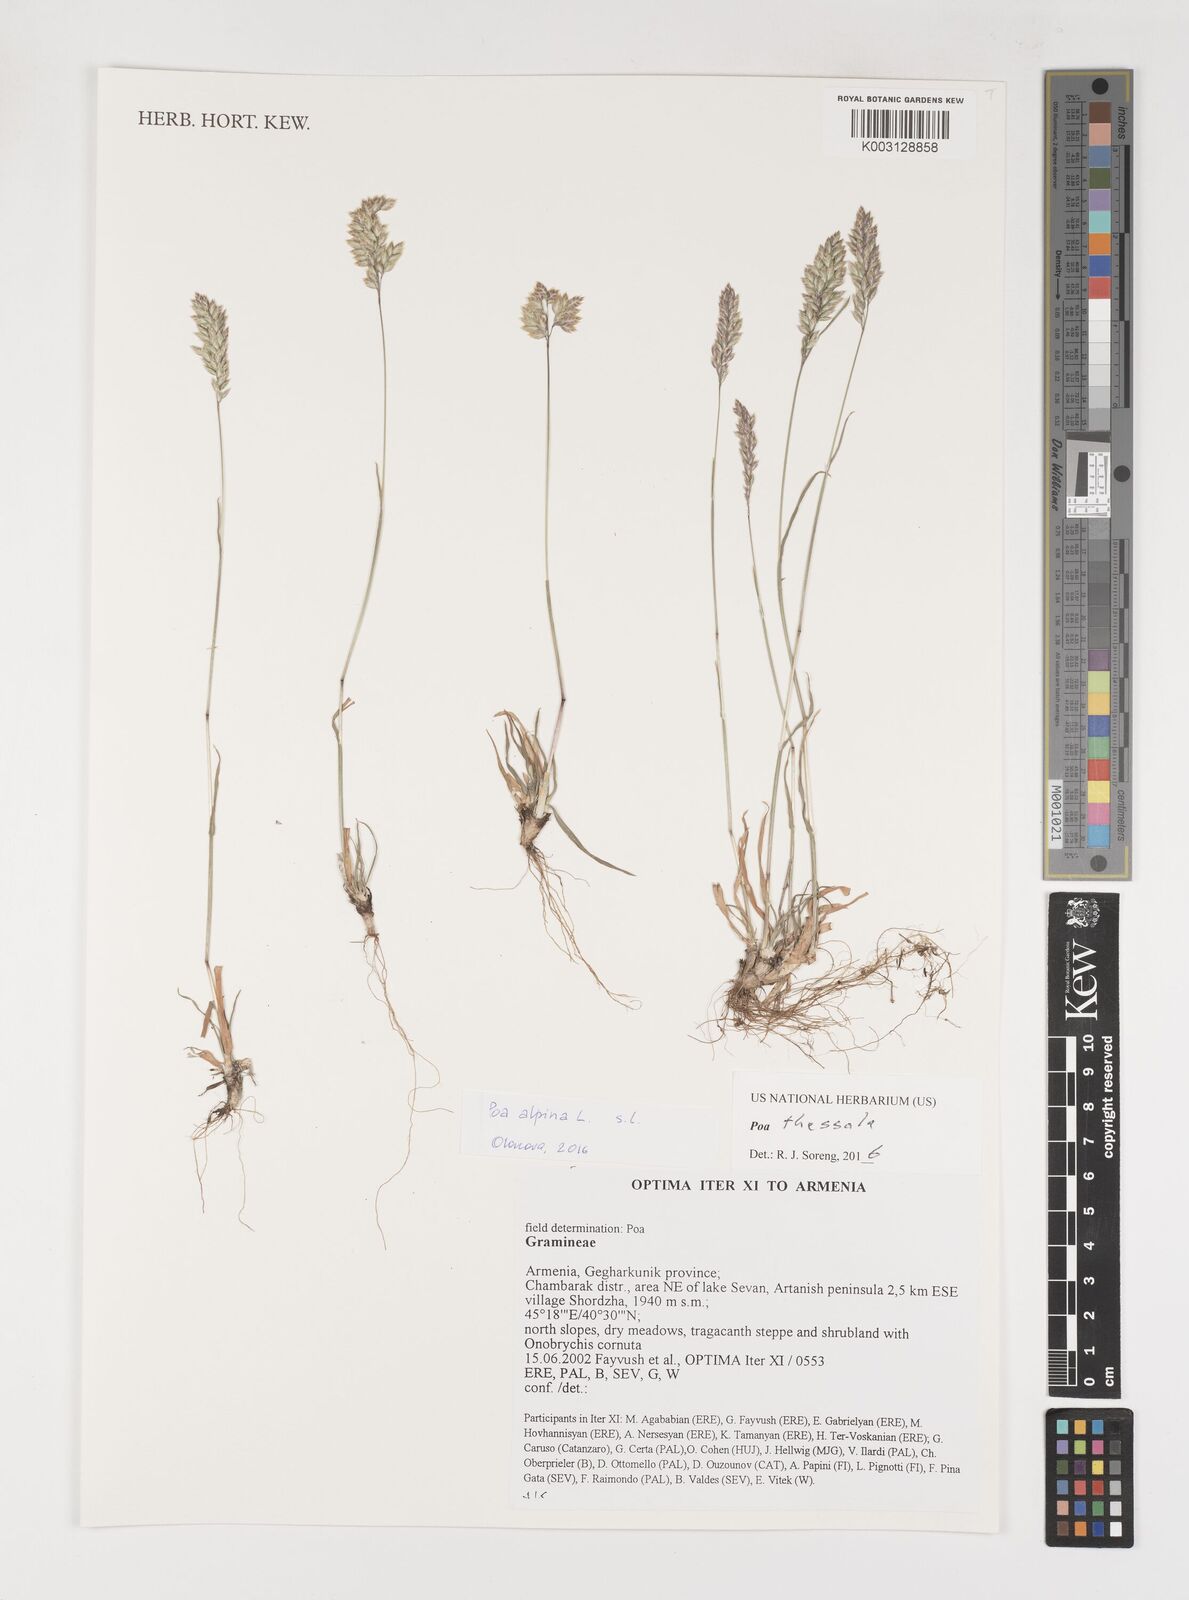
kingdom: Plantae
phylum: Tracheophyta
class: Liliopsida
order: Poales
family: Poaceae
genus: Poa
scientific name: Poa thessala
